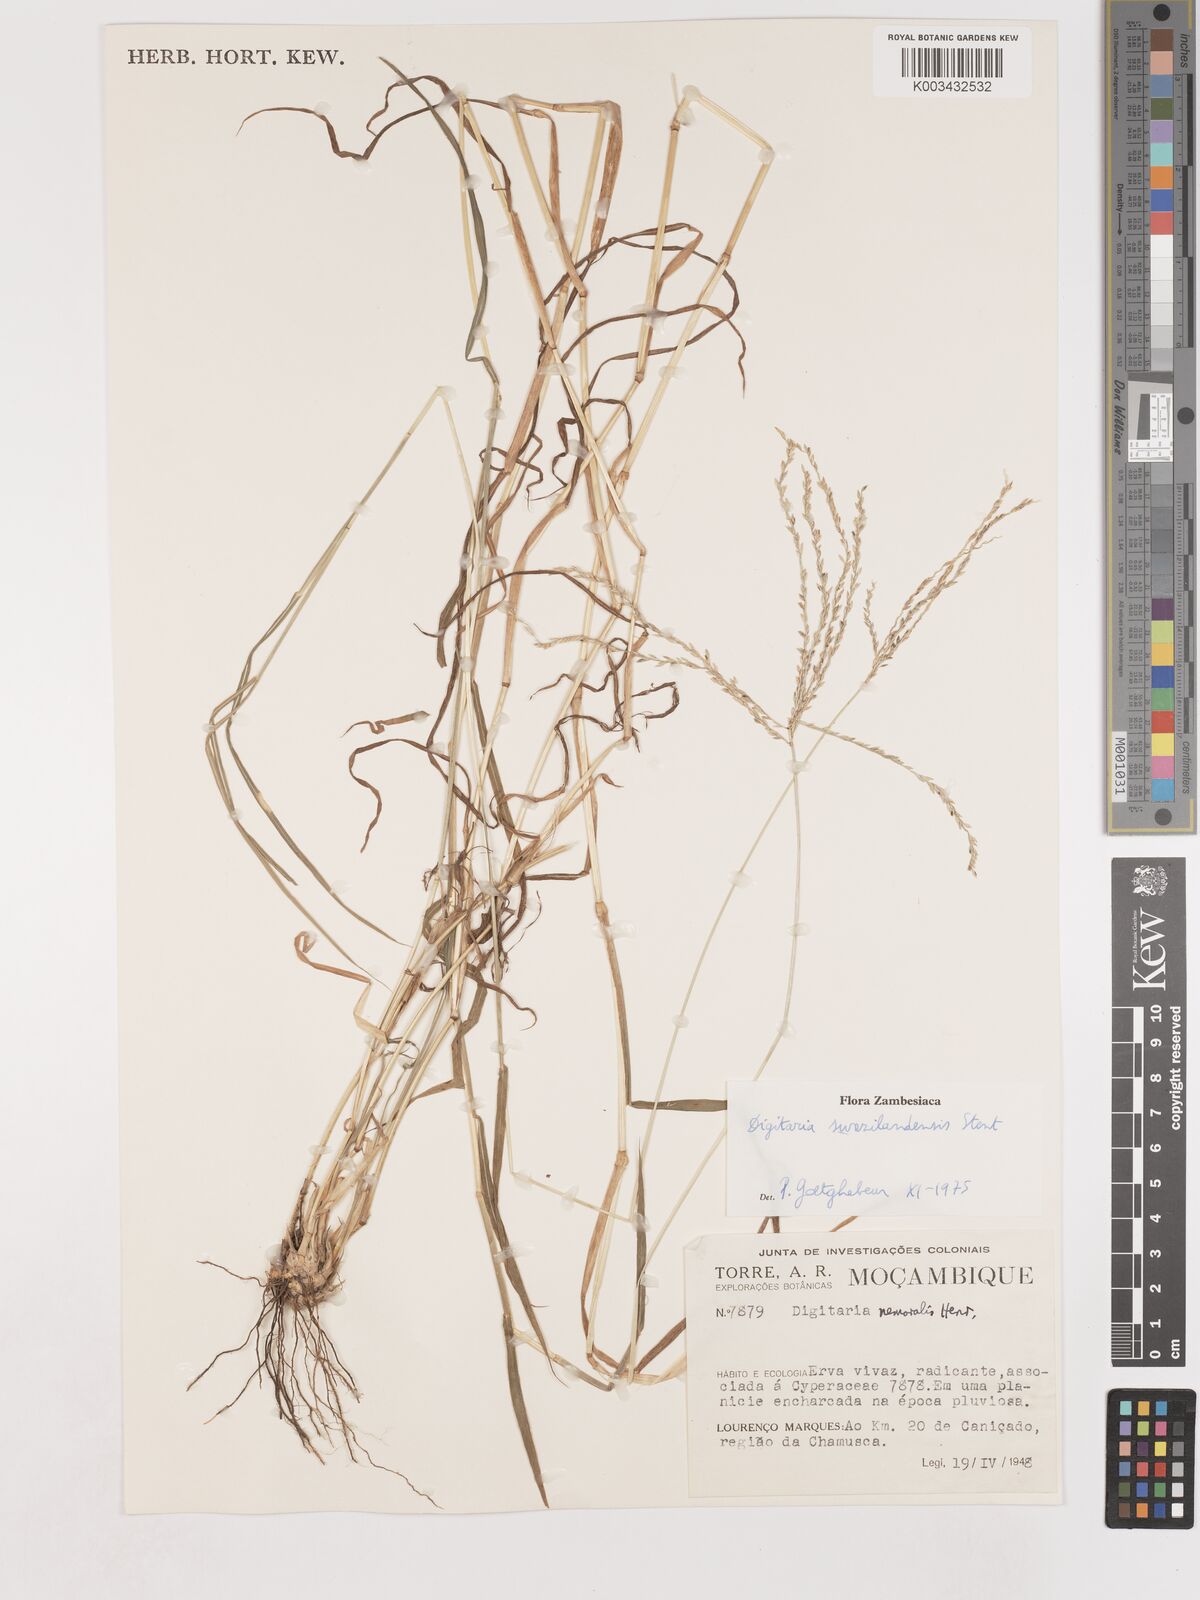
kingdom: Plantae
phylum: Tracheophyta
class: Liliopsida
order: Poales
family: Poaceae
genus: Digitaria
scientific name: Digitaria didactyla
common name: Blue couch
